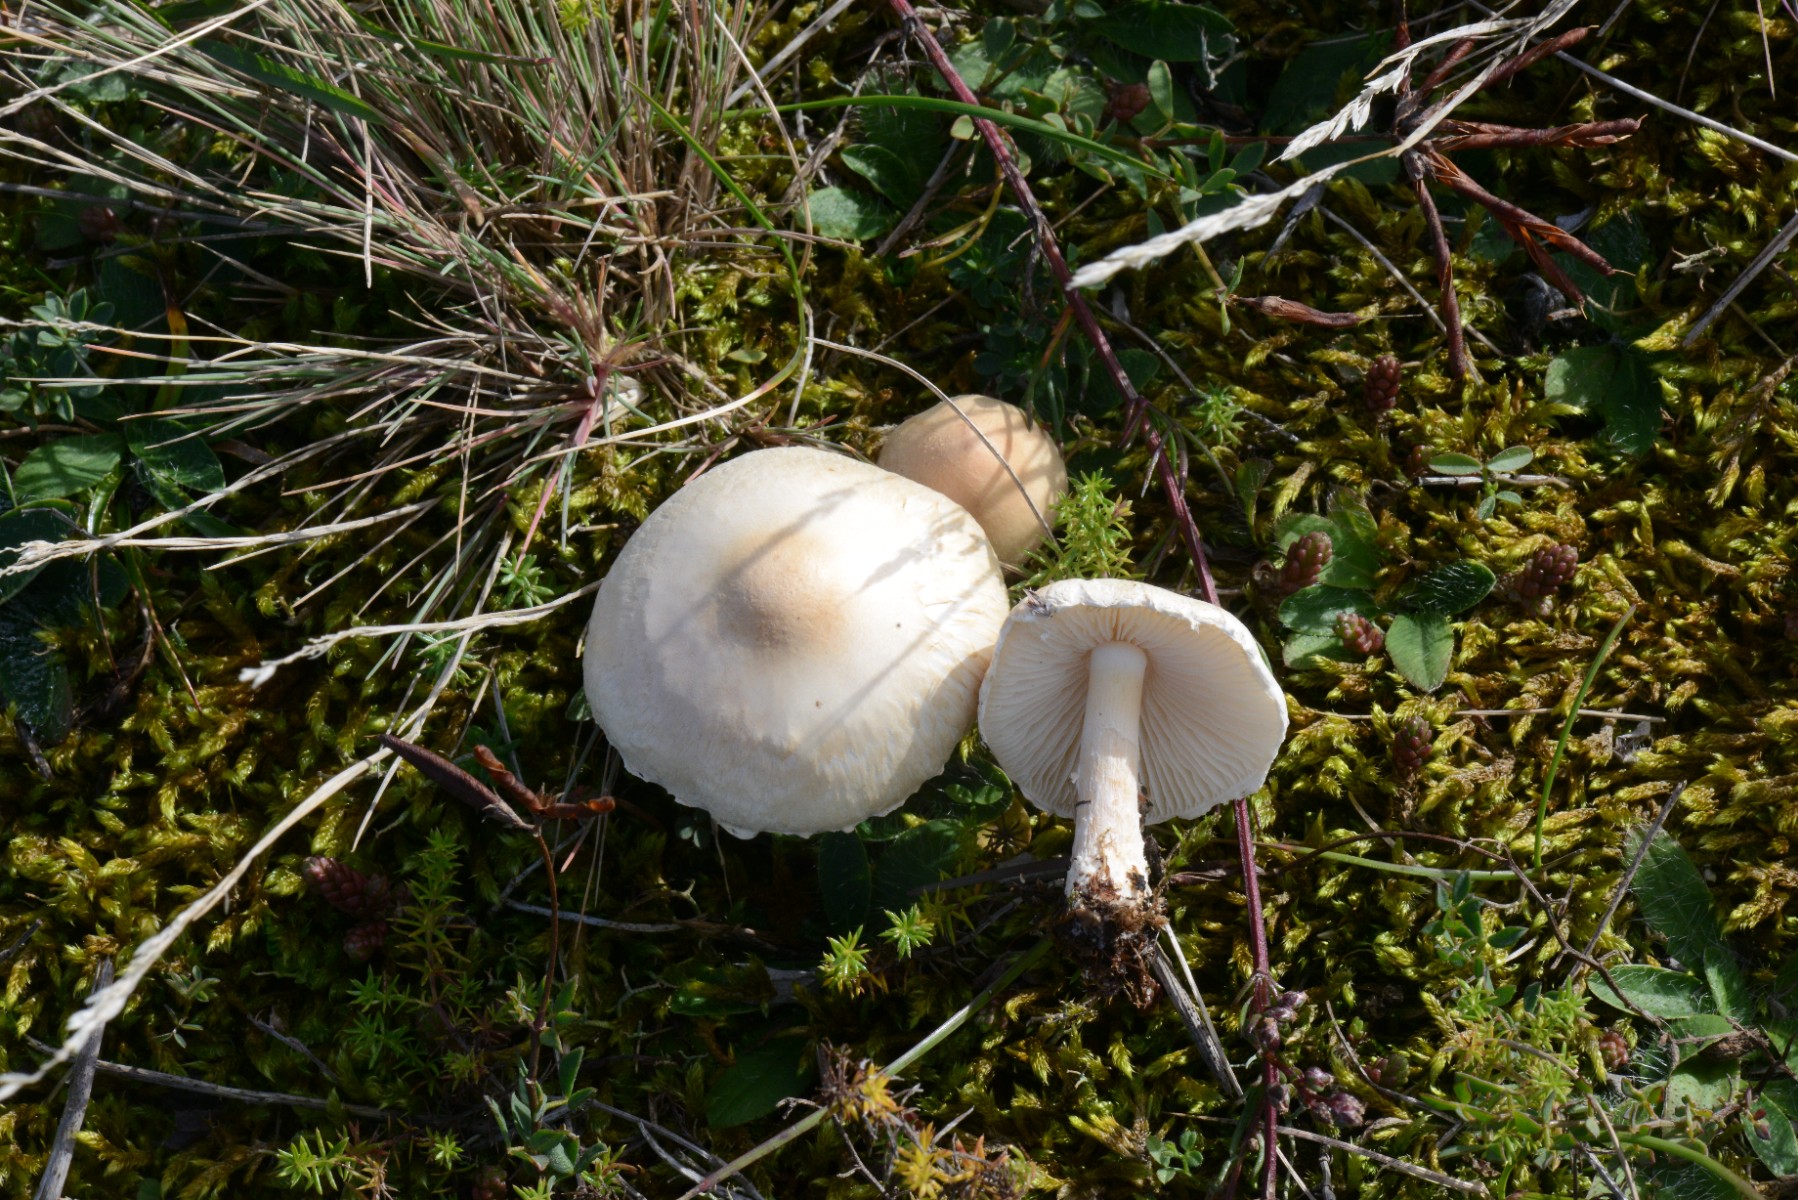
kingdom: Fungi
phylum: Basidiomycota
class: Agaricomycetes
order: Agaricales
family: Agaricaceae
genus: Lepiota
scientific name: Lepiota erminea
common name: hvid parasolhat
